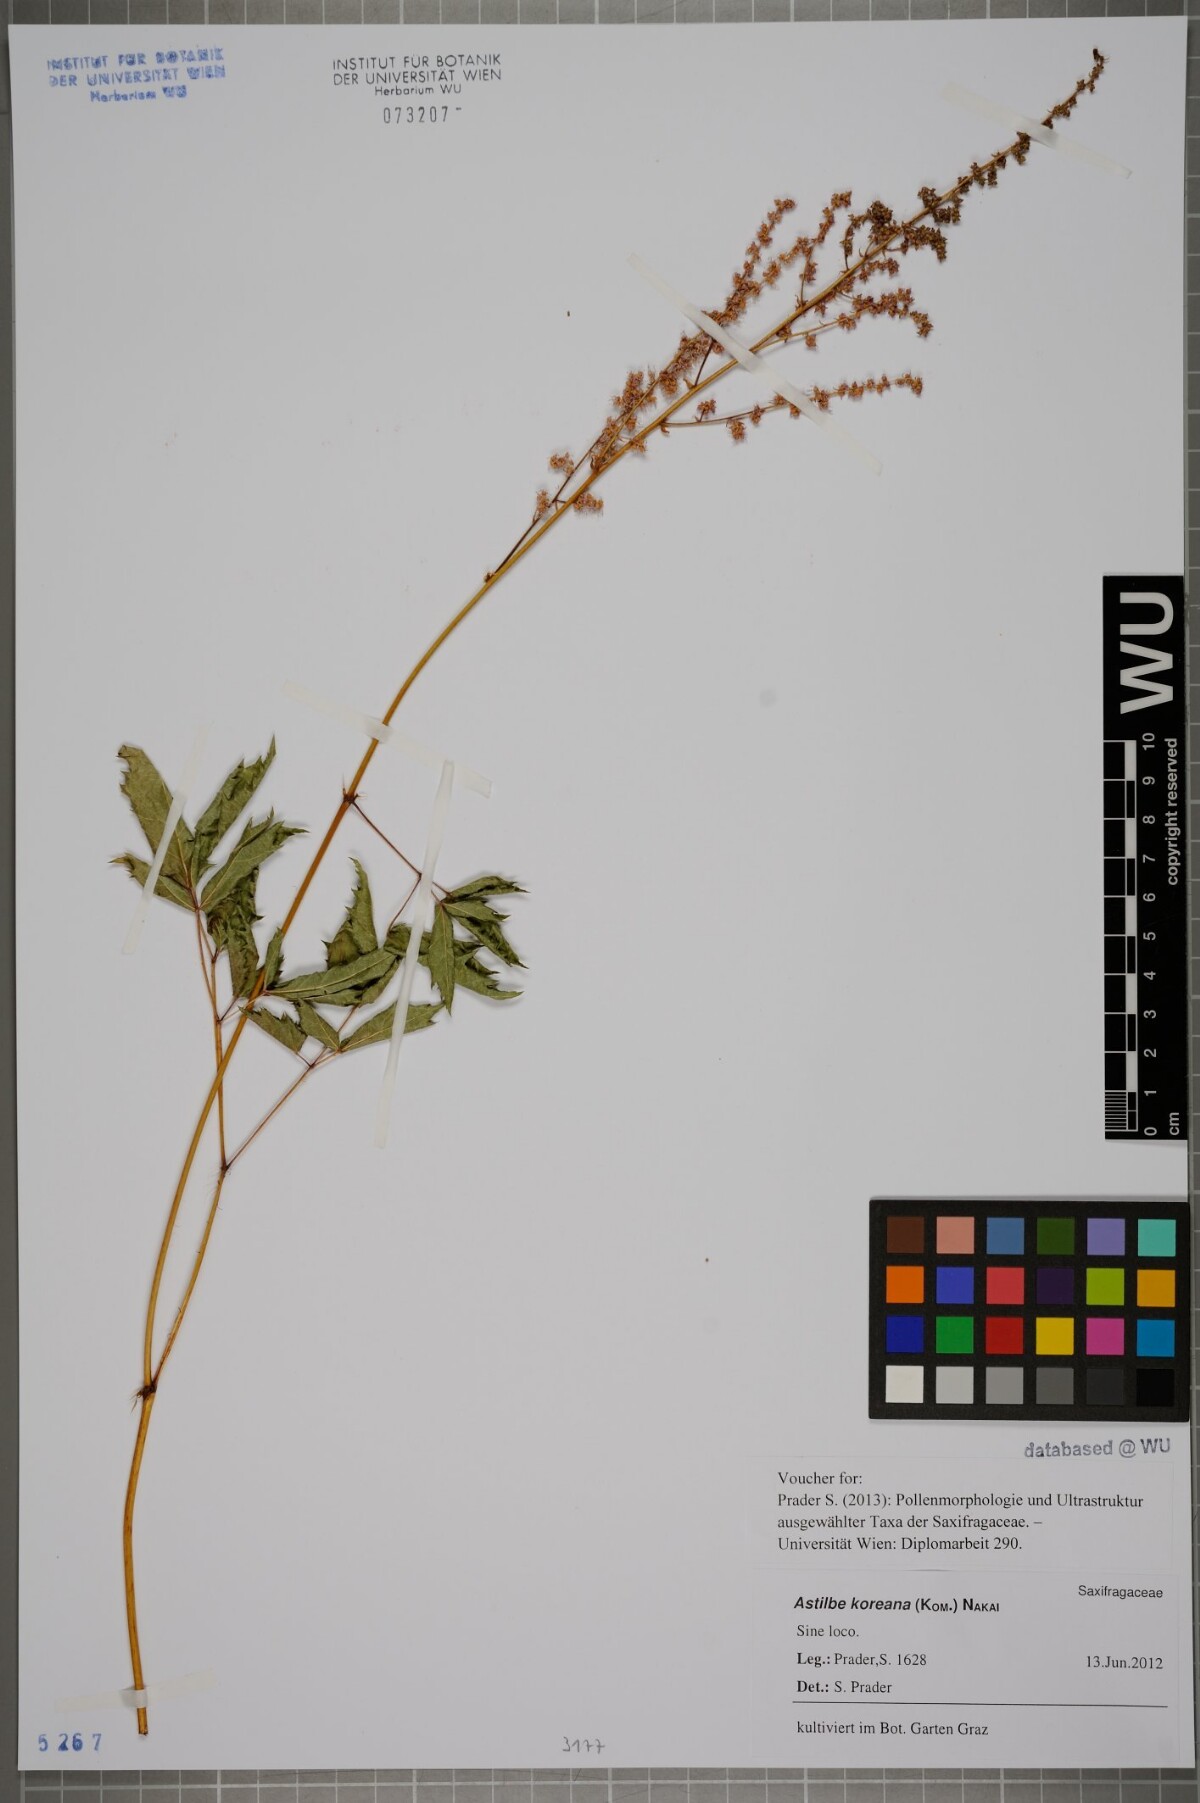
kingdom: Plantae
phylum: Tracheophyta
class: Magnoliopsida
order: Saxifragales
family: Saxifragaceae
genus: Astilbe
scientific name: Astilbe grandis
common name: Korean astilbe
